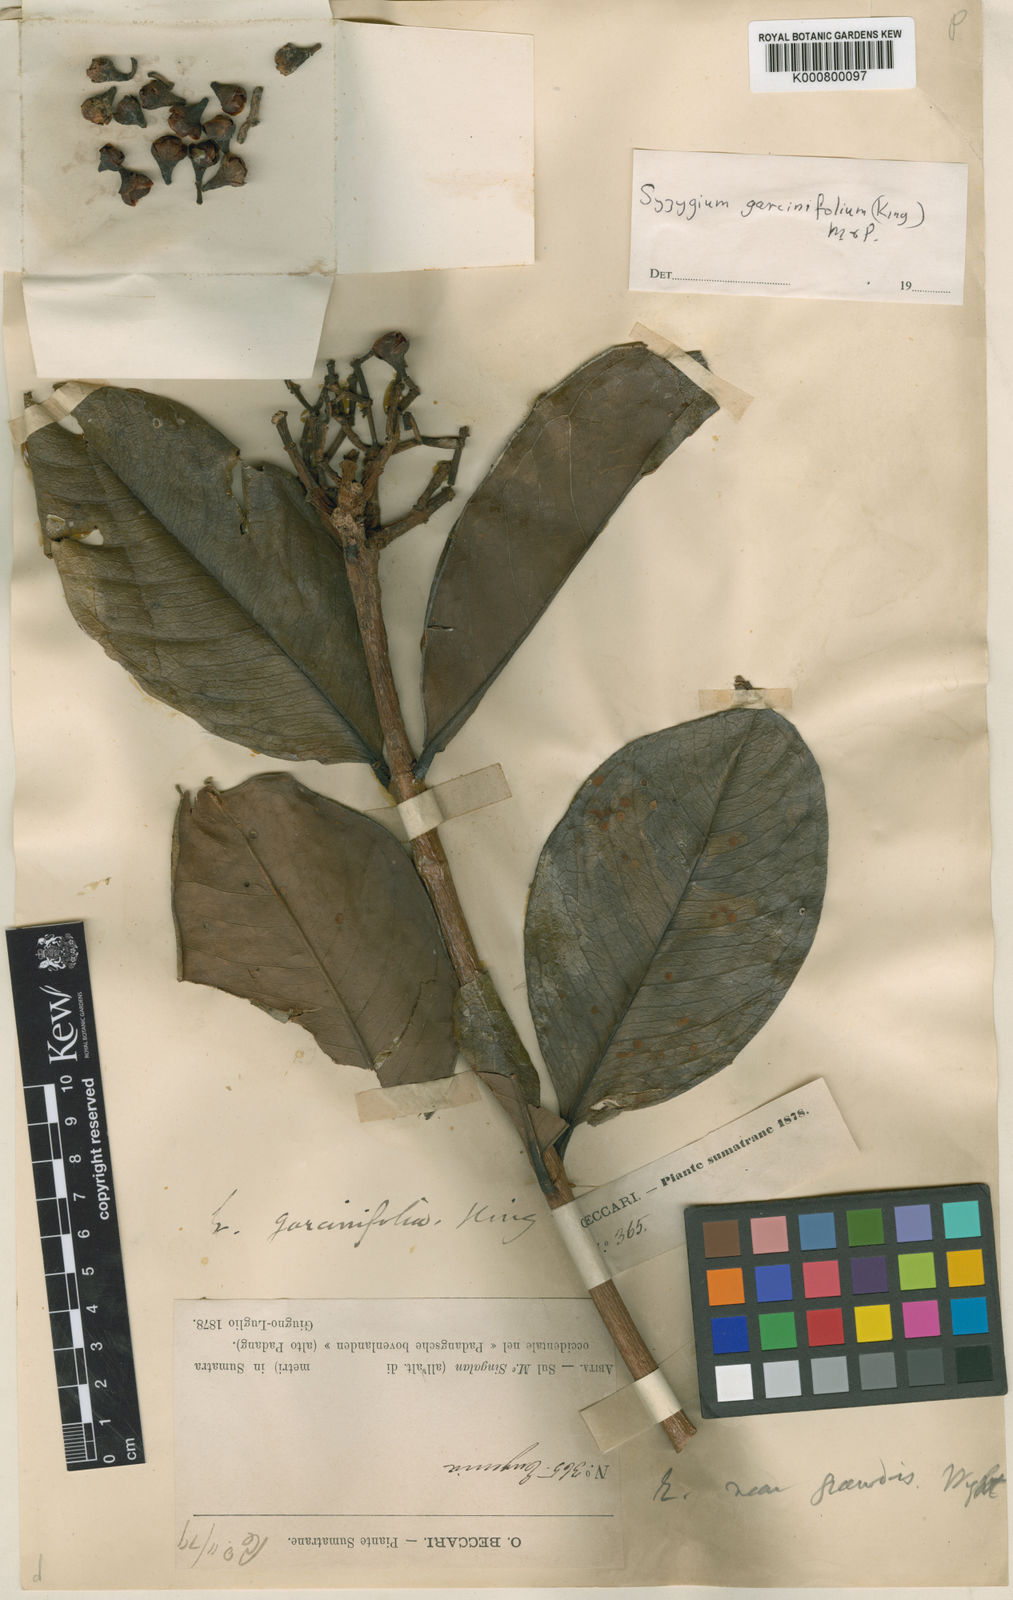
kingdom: Plantae
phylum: Tracheophyta
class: Magnoliopsida
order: Myrtales
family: Myrtaceae
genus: Syzygium
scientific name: Syzygium garciniifolium
